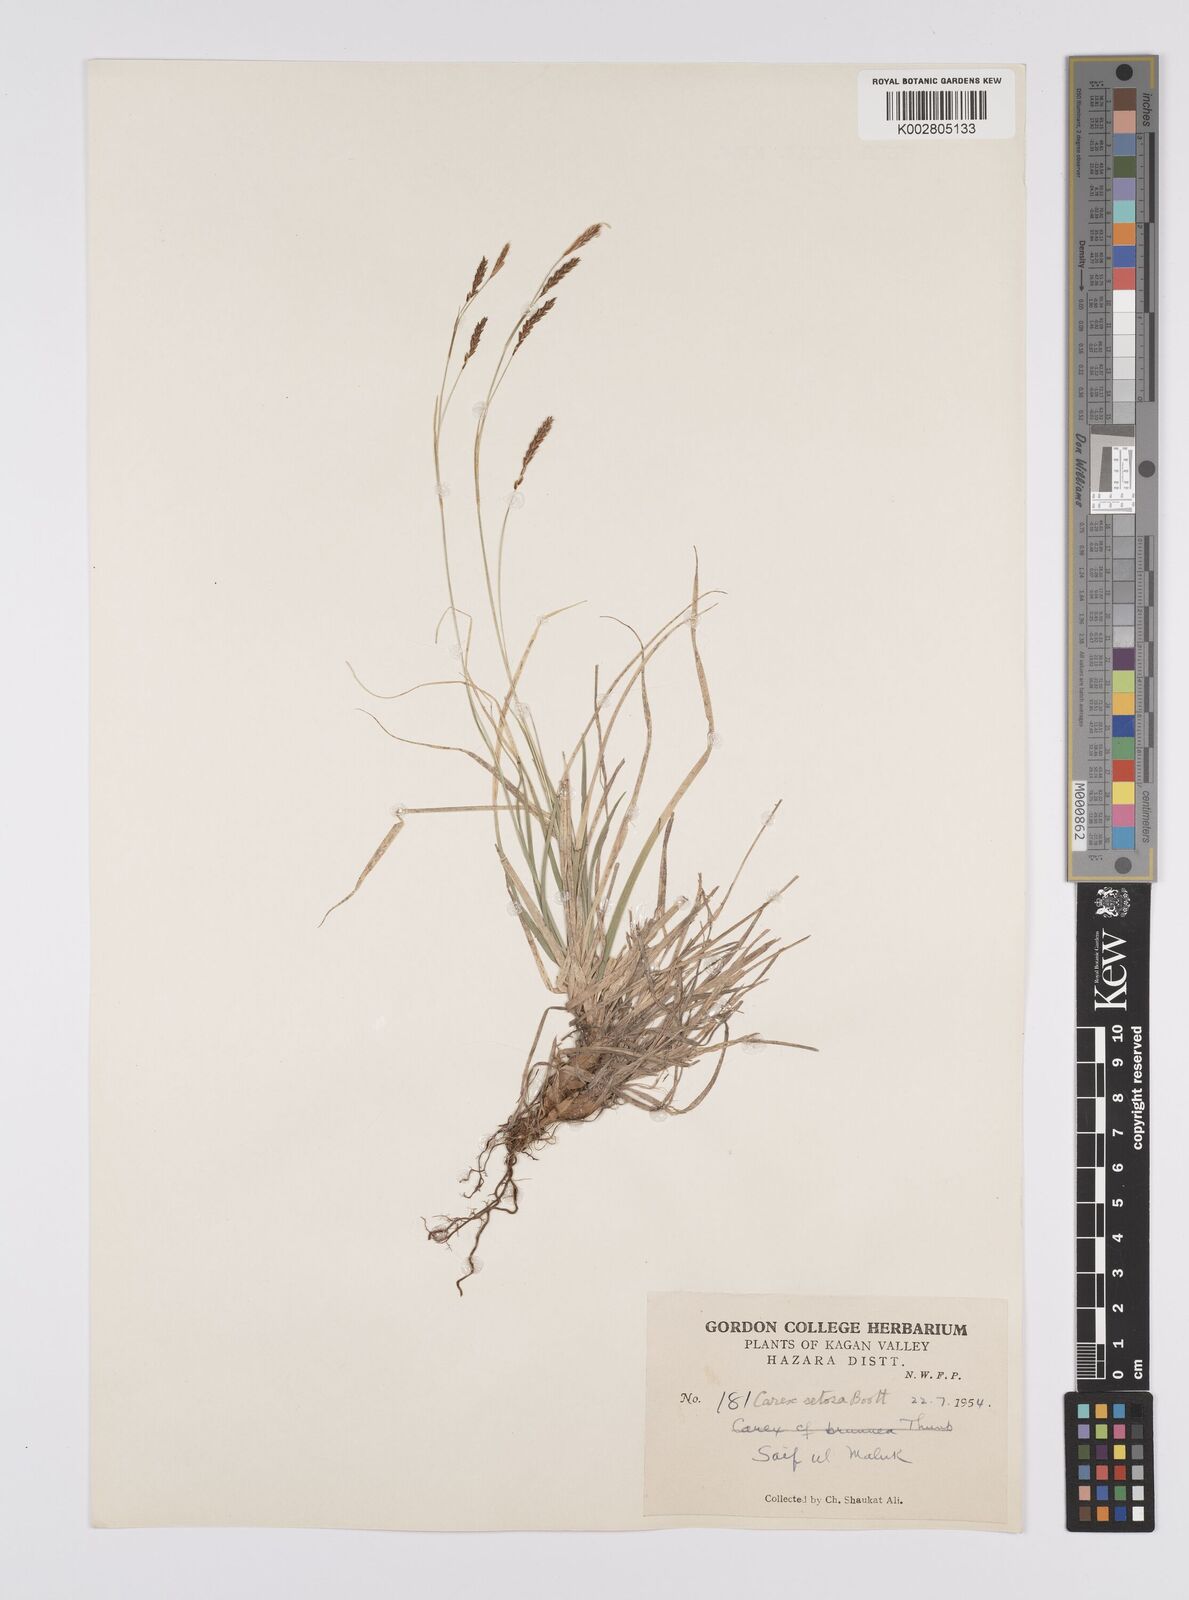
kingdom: Plantae
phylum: Tracheophyta
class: Liliopsida
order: Poales
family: Cyperaceae
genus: Carex
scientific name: Carex setosa
